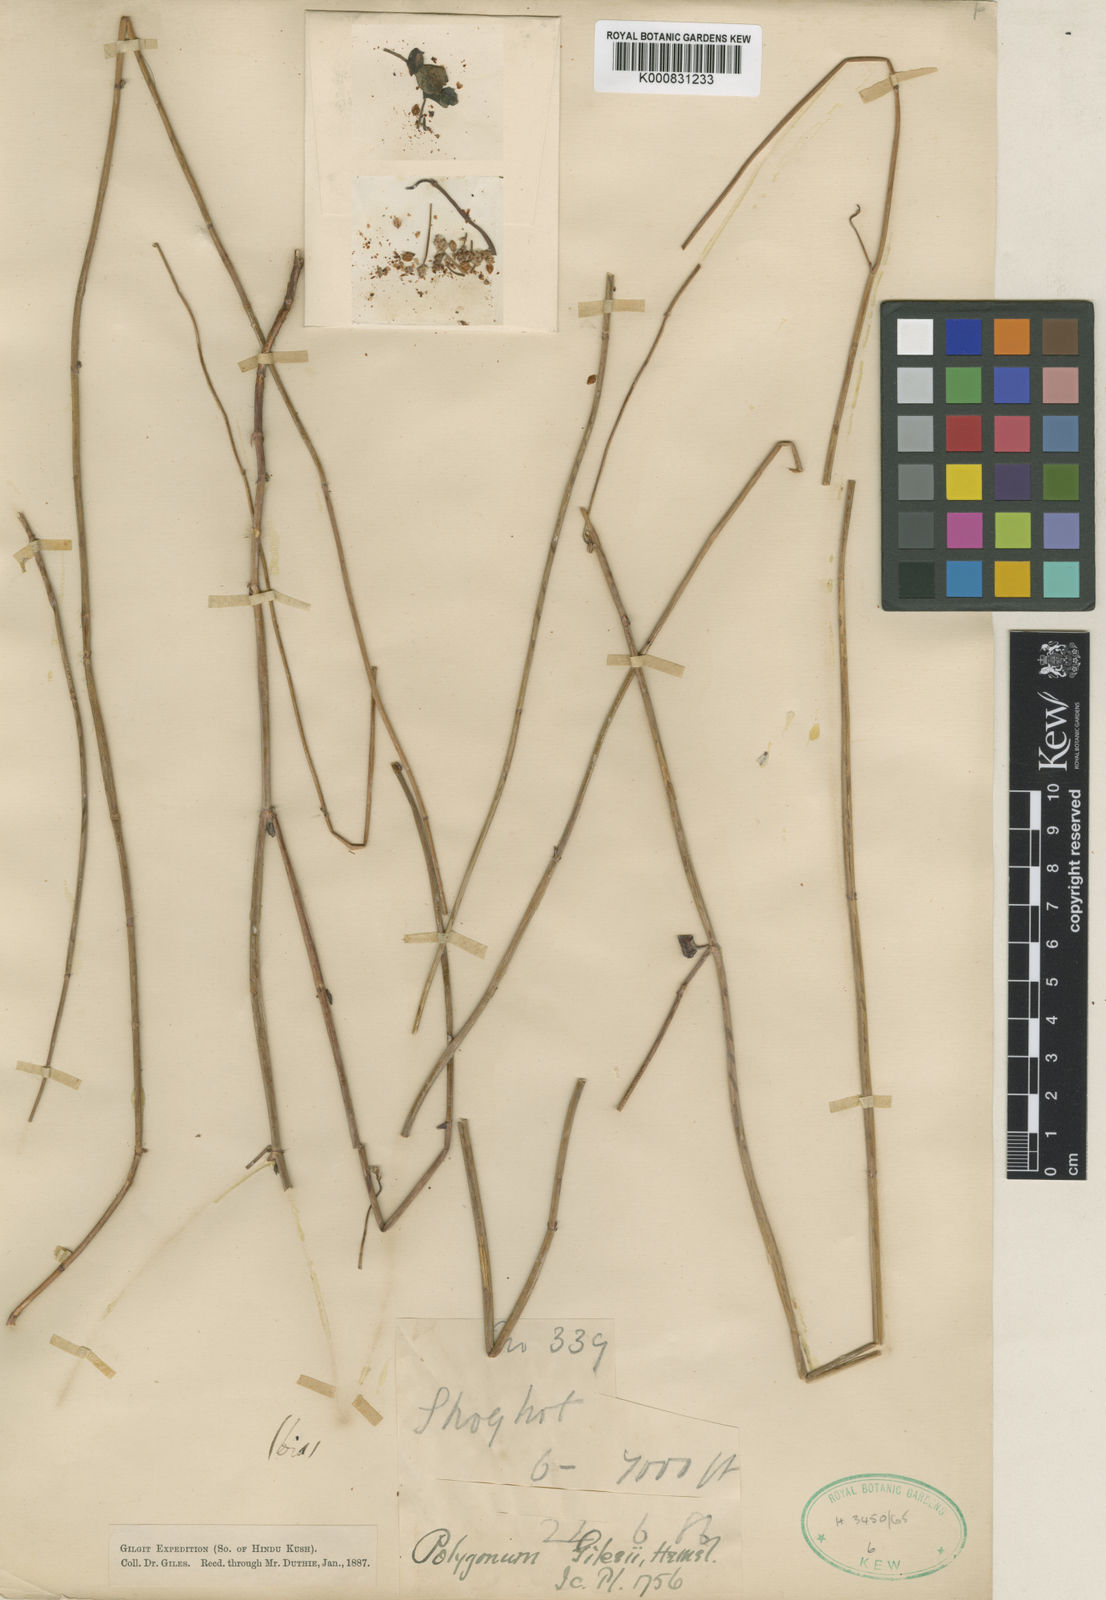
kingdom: Plantae
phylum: Tracheophyta
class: Magnoliopsida
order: Caryophyllales
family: Polygonaceae
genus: Fagopyrum
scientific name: Fagopyrum gilesii
